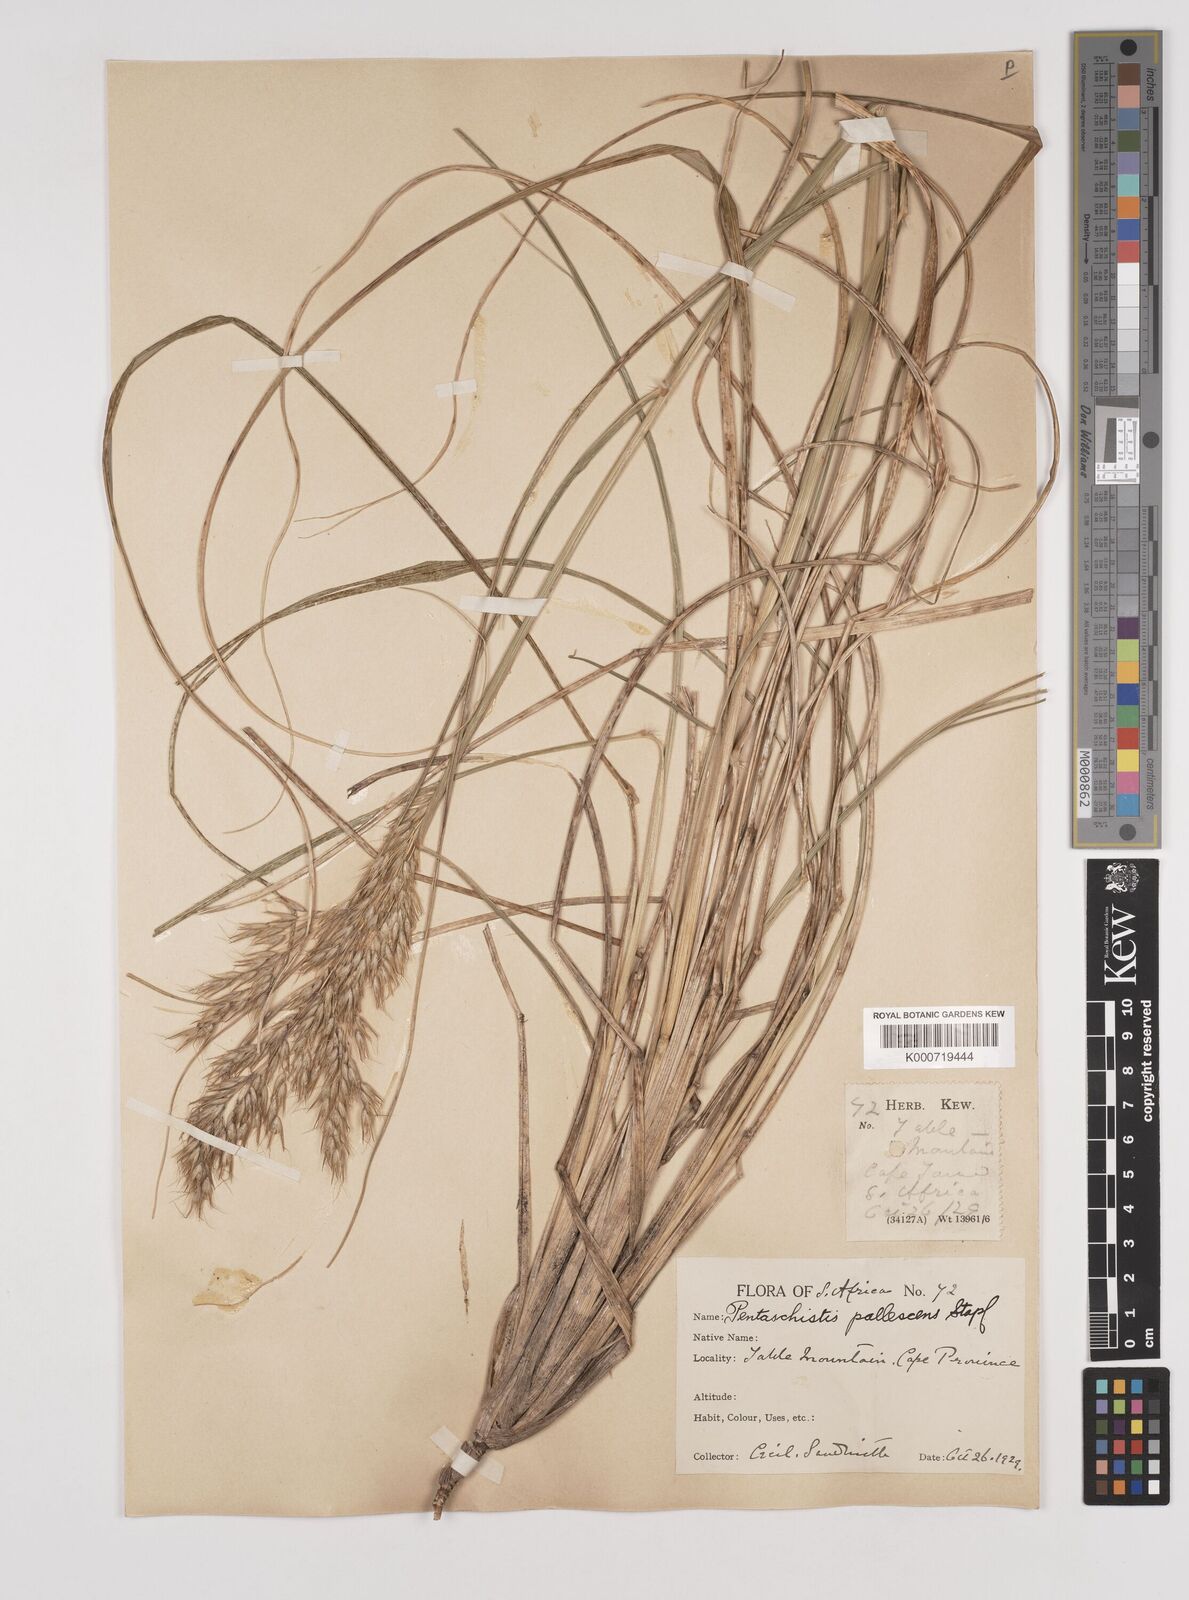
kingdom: Plantae
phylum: Tracheophyta
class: Liliopsida
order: Poales
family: Poaceae
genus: Pentameris
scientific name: Pentameris pallescens
